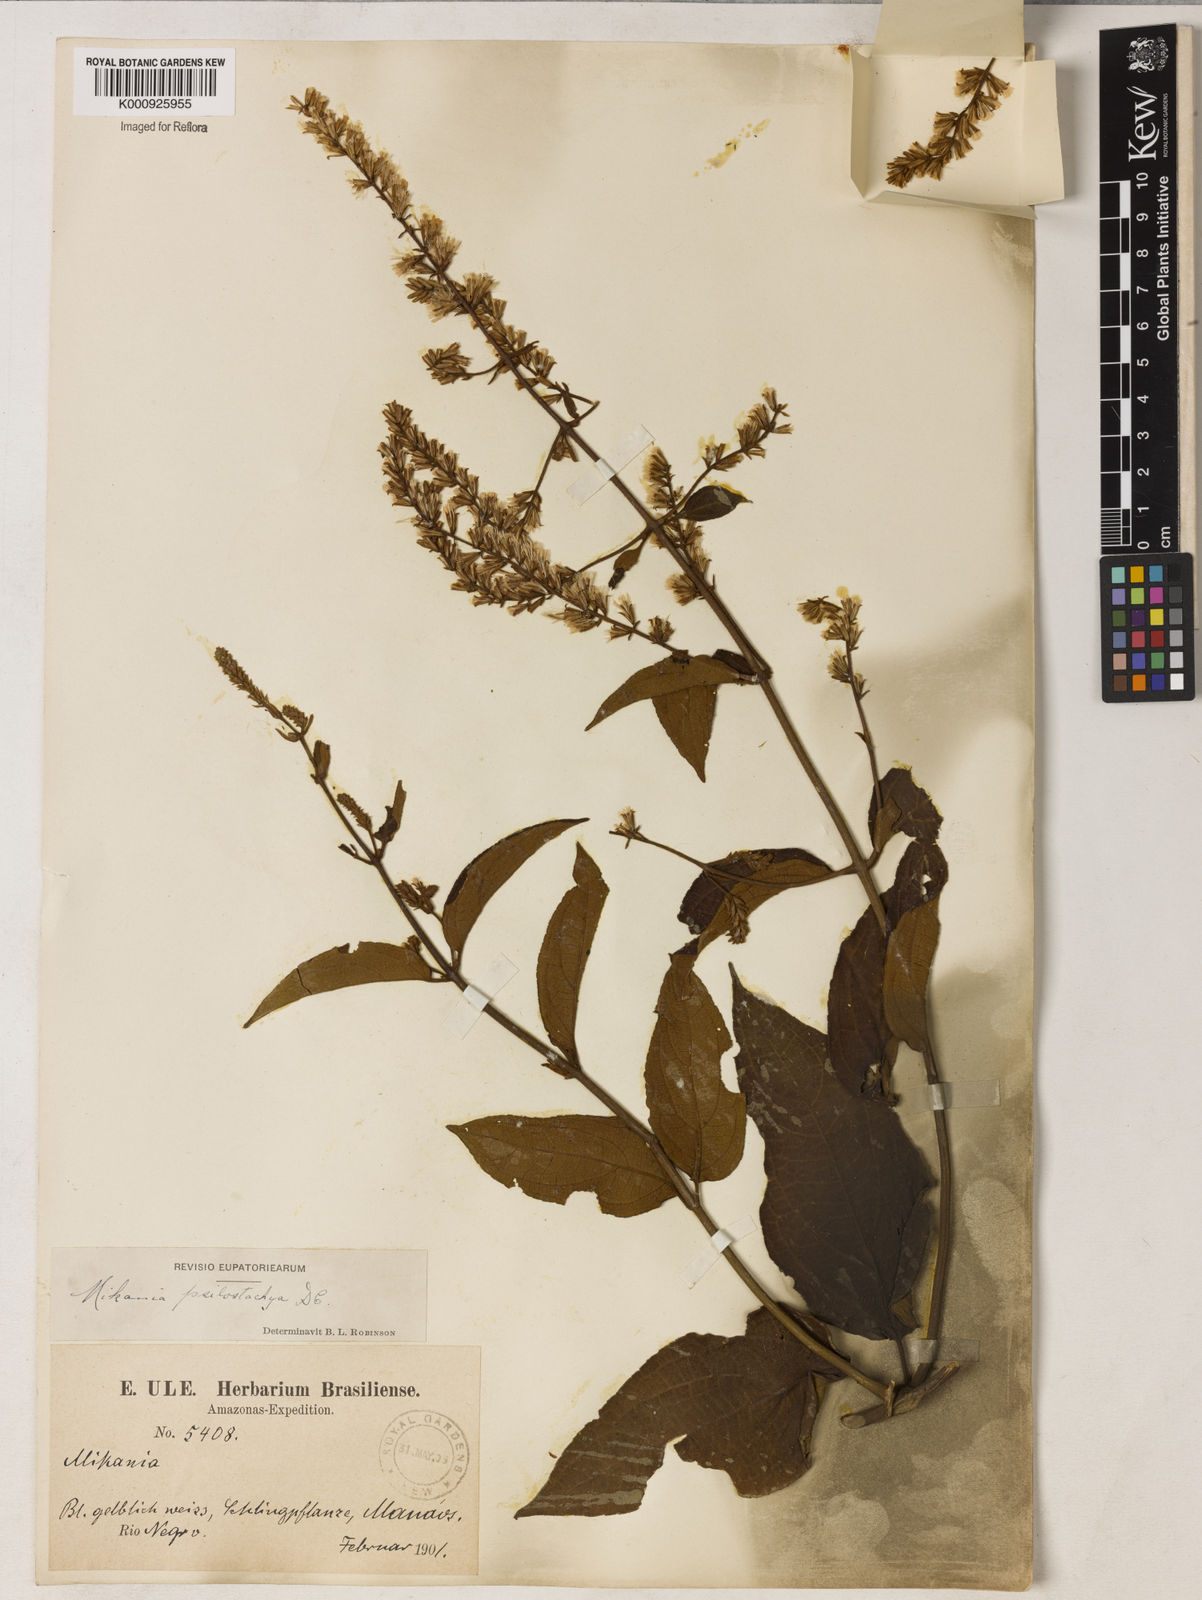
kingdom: Plantae
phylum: Tracheophyta
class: Magnoliopsida
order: Asterales
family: Asteraceae
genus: Mikania
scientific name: Mikania psilostachya
